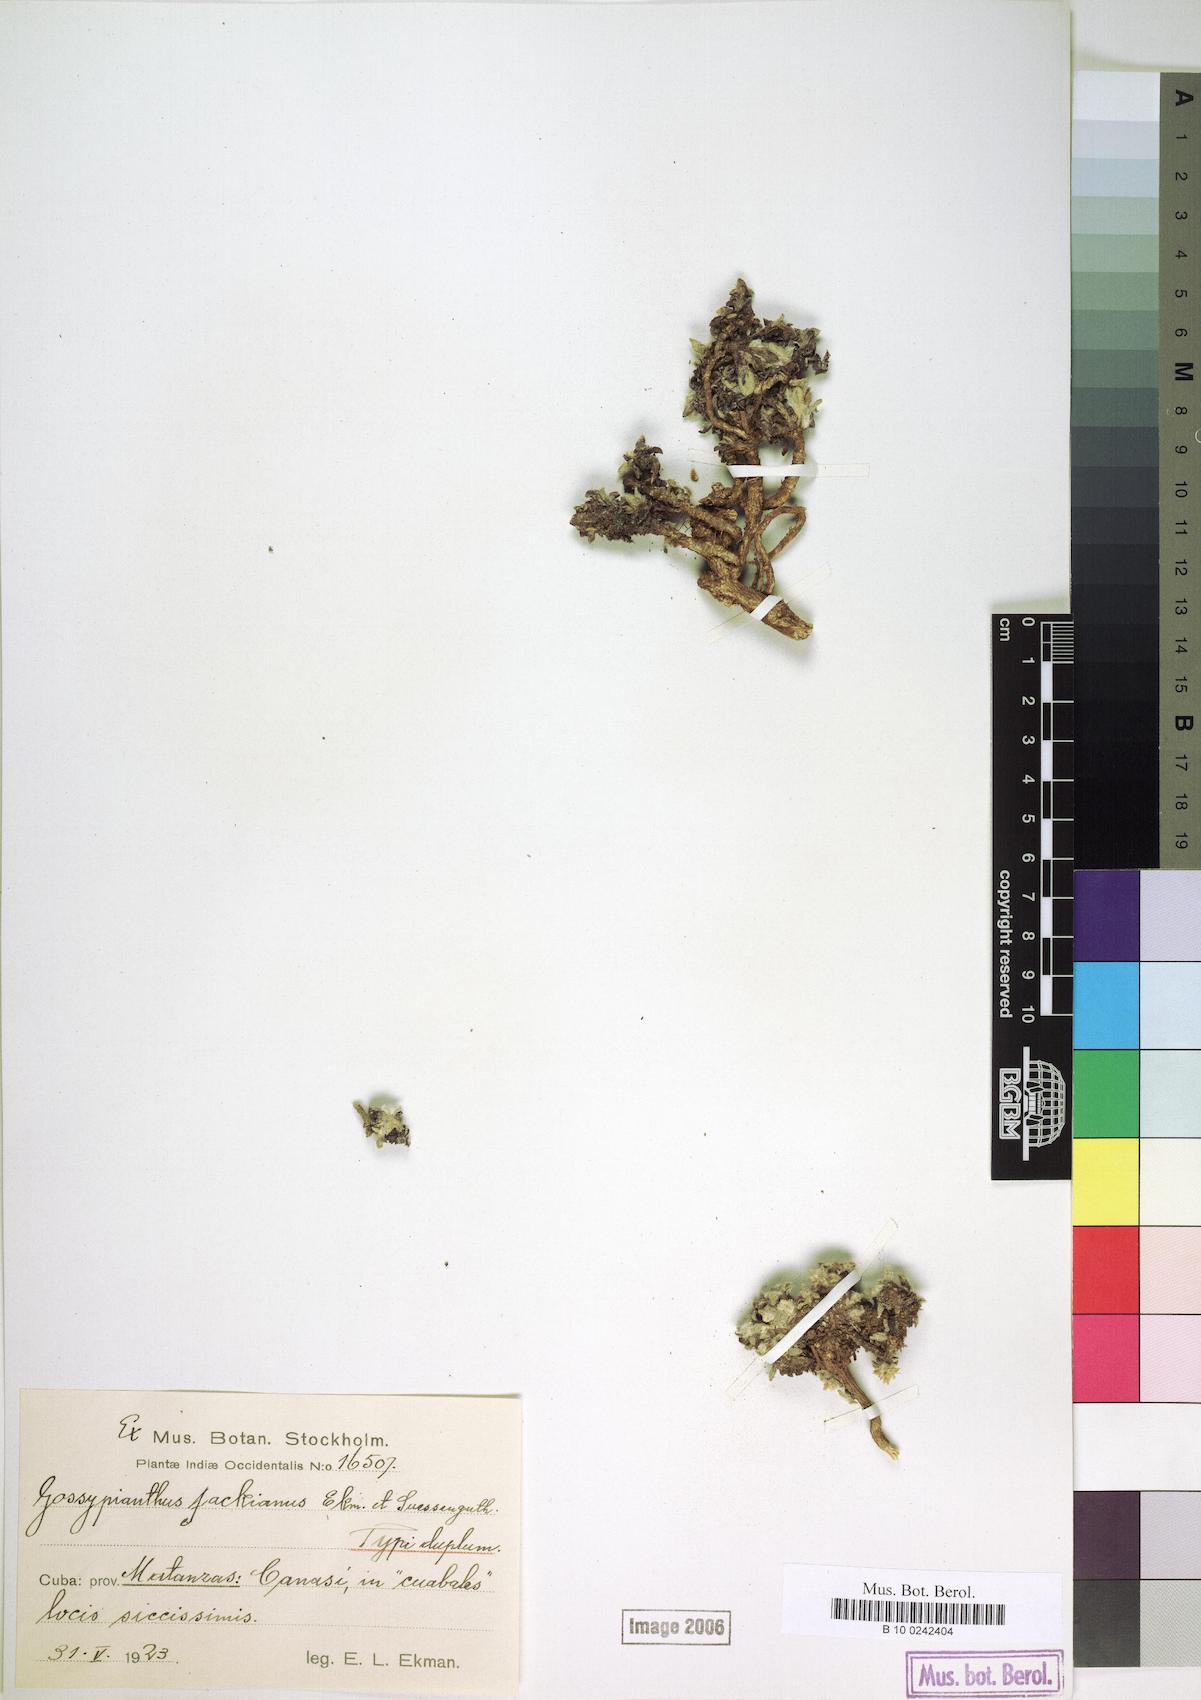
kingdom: Plantae
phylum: Tracheophyta
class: Magnoliopsida
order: Caryophyllales
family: Amaranthaceae
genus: Gomphrena
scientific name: Gomphrena brittonii
